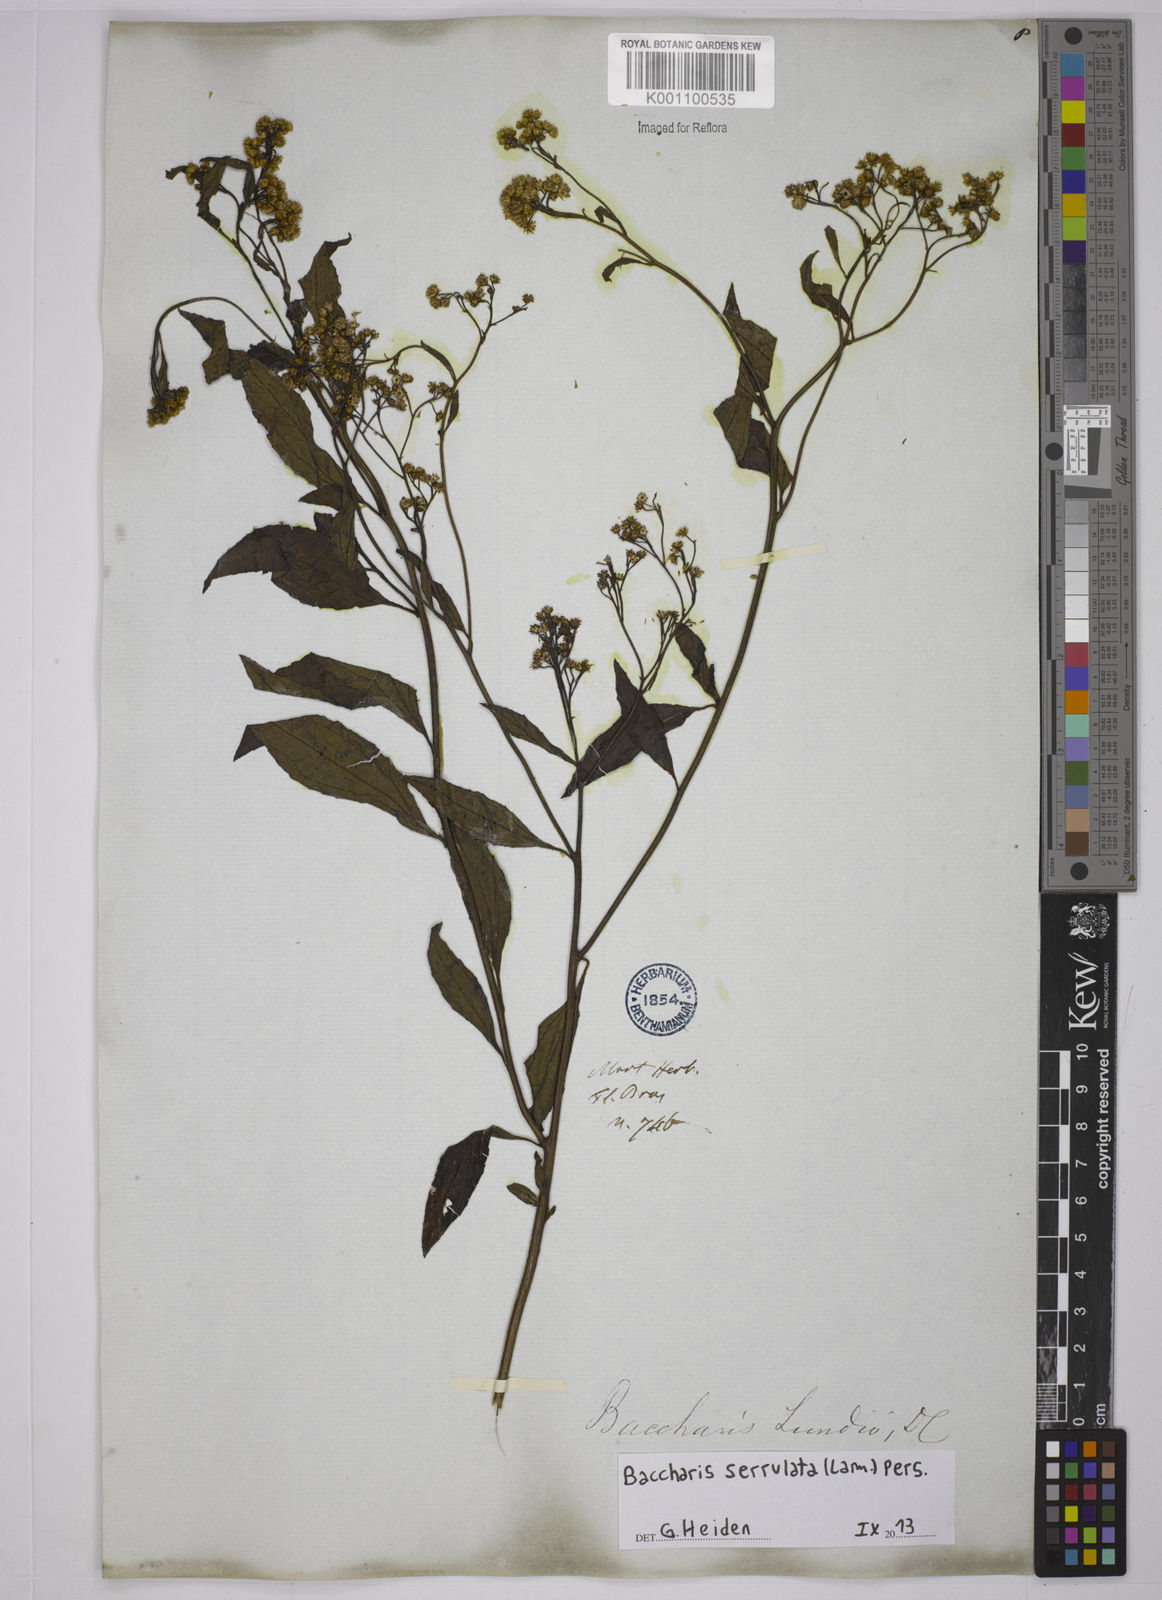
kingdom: Plantae
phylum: Tracheophyta
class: Magnoliopsida
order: Asterales
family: Asteraceae
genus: Baccharis
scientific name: Baccharis serrulata
